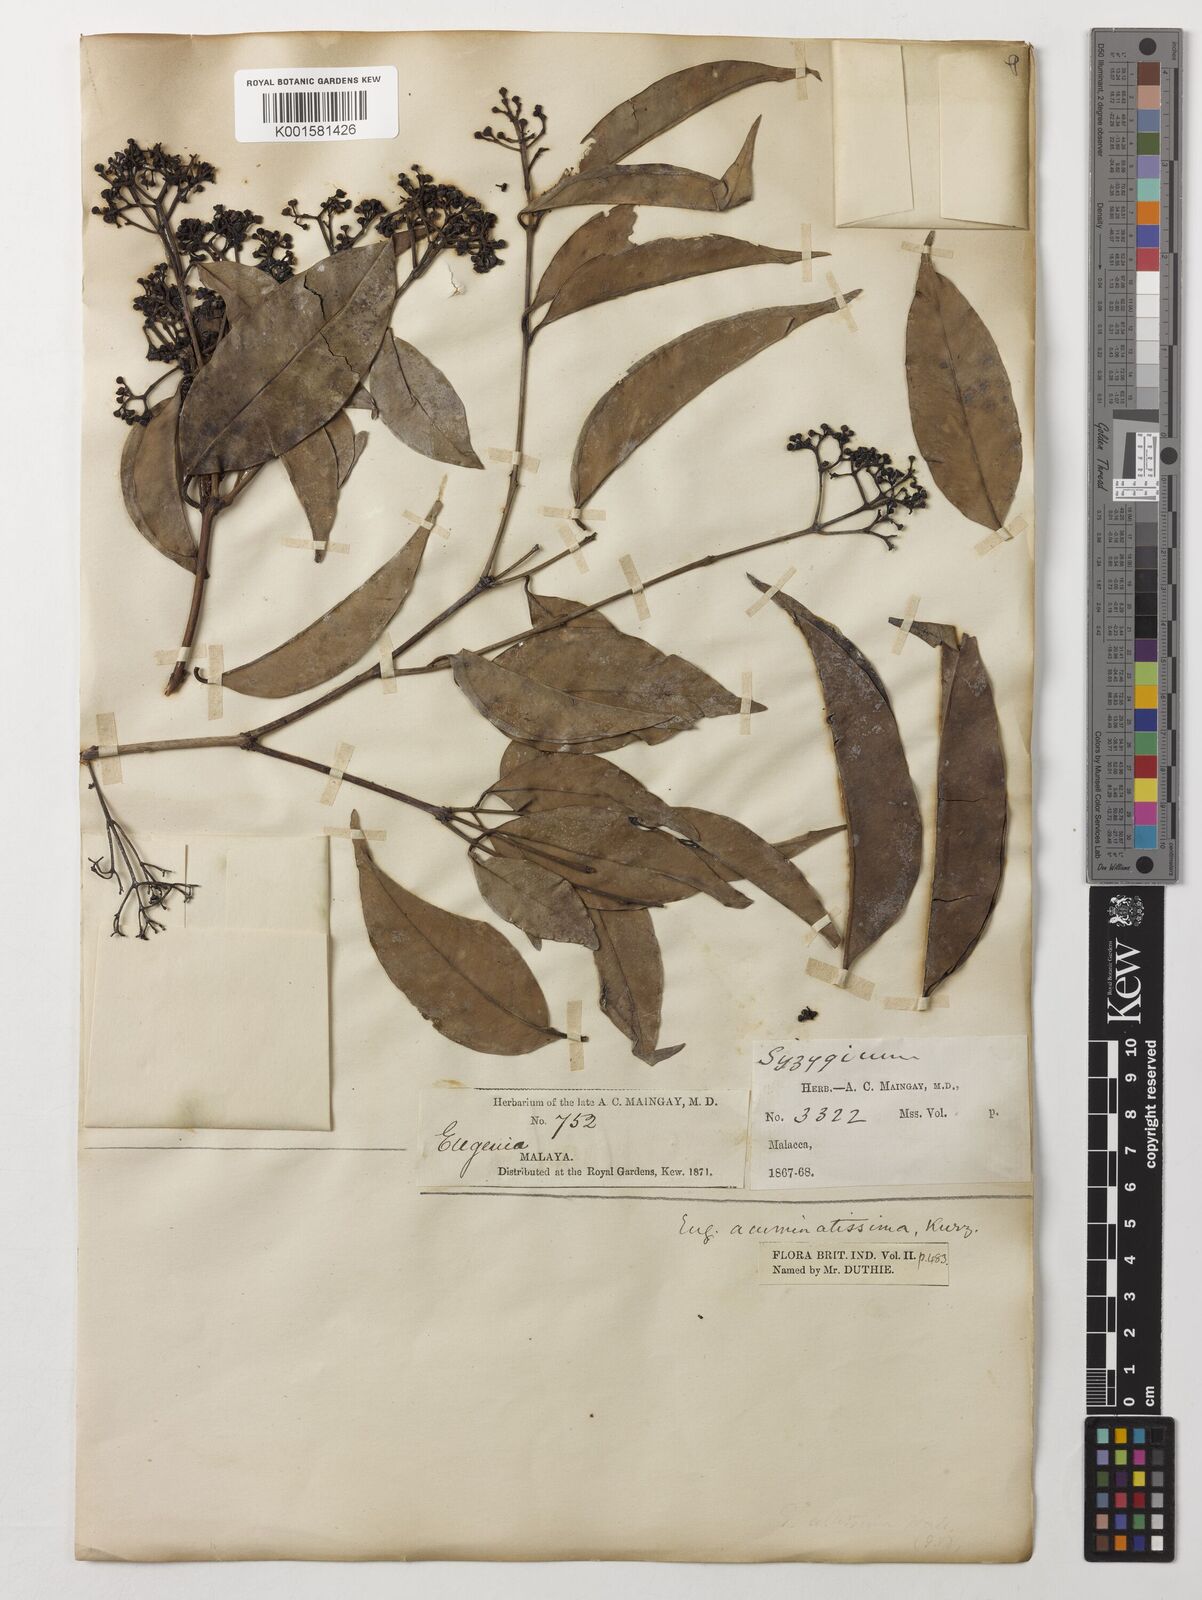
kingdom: Plantae
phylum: Tracheophyta
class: Magnoliopsida
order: Myrtales
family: Myrtaceae
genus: Eugenia
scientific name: Eugenia biflora
